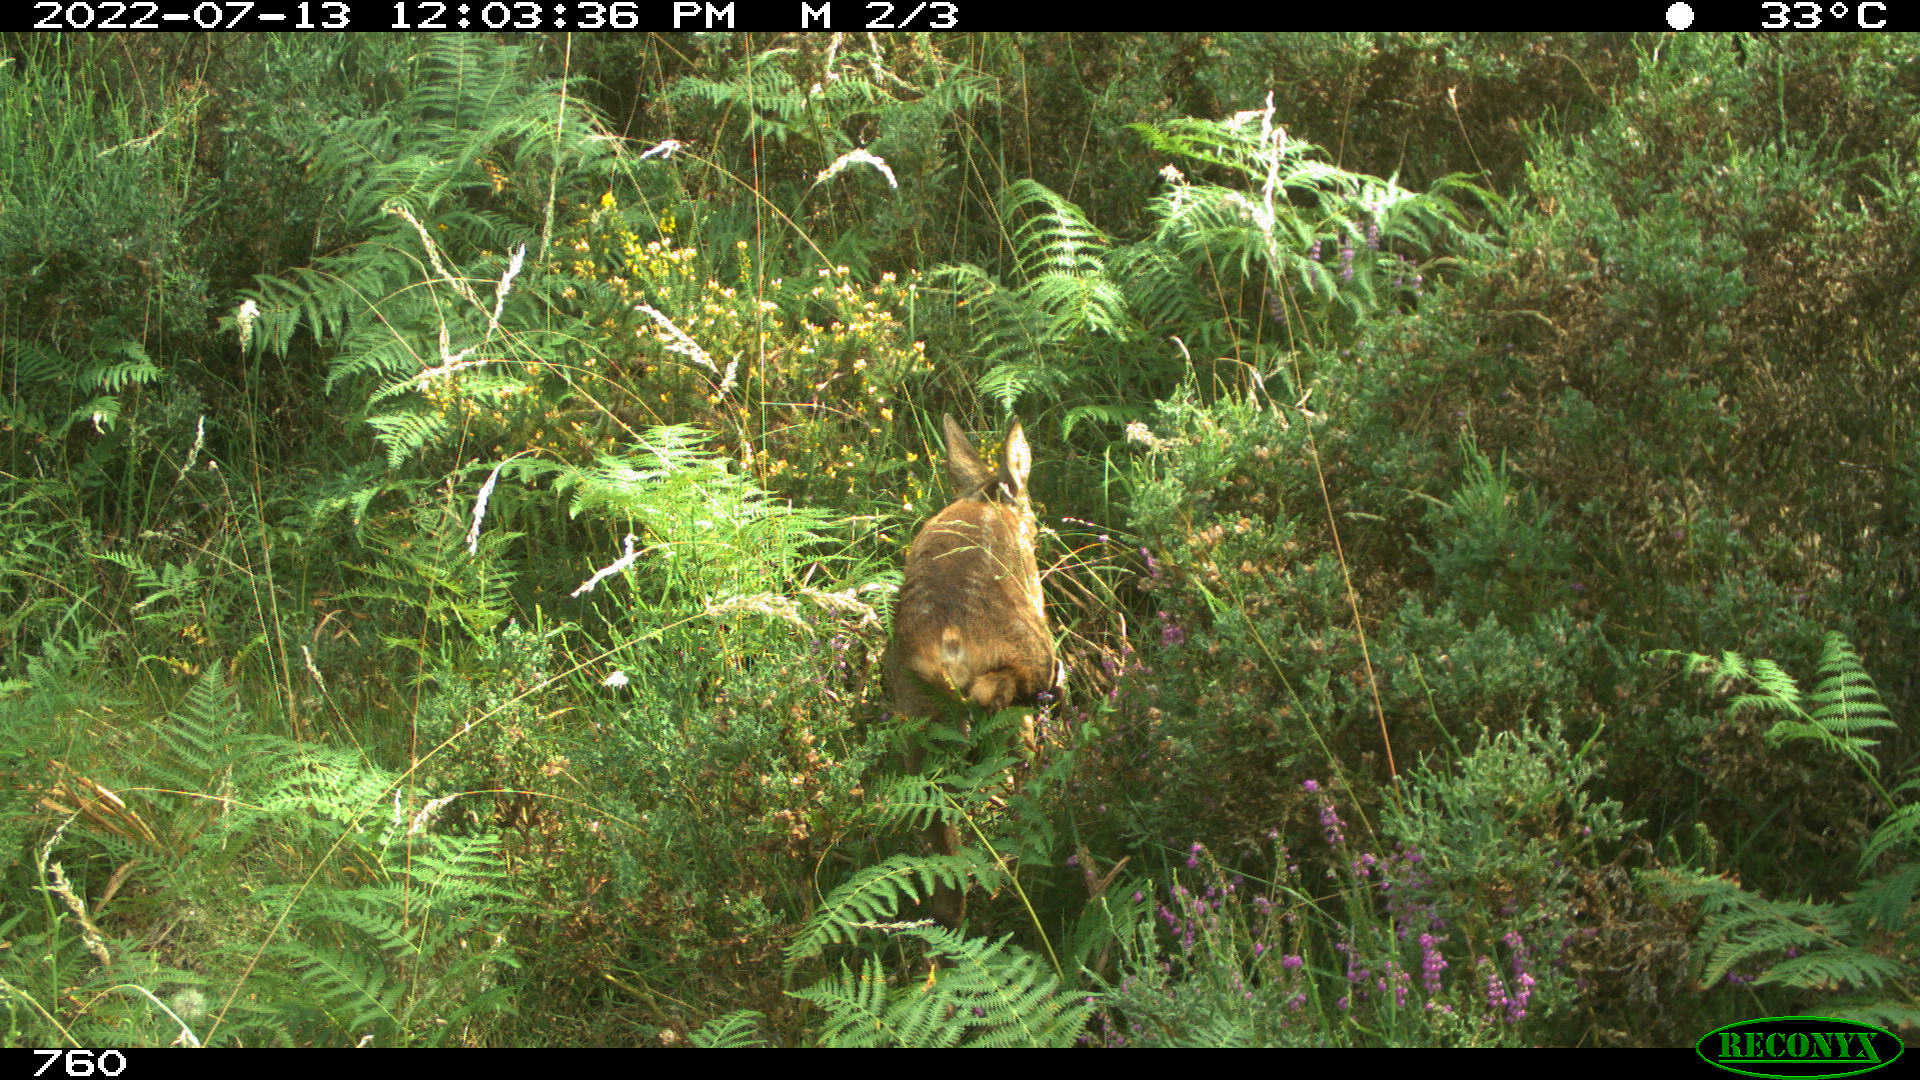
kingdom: Animalia
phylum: Chordata
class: Mammalia
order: Artiodactyla
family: Cervidae
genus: Capreolus
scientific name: Capreolus capreolus
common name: Western roe deer
